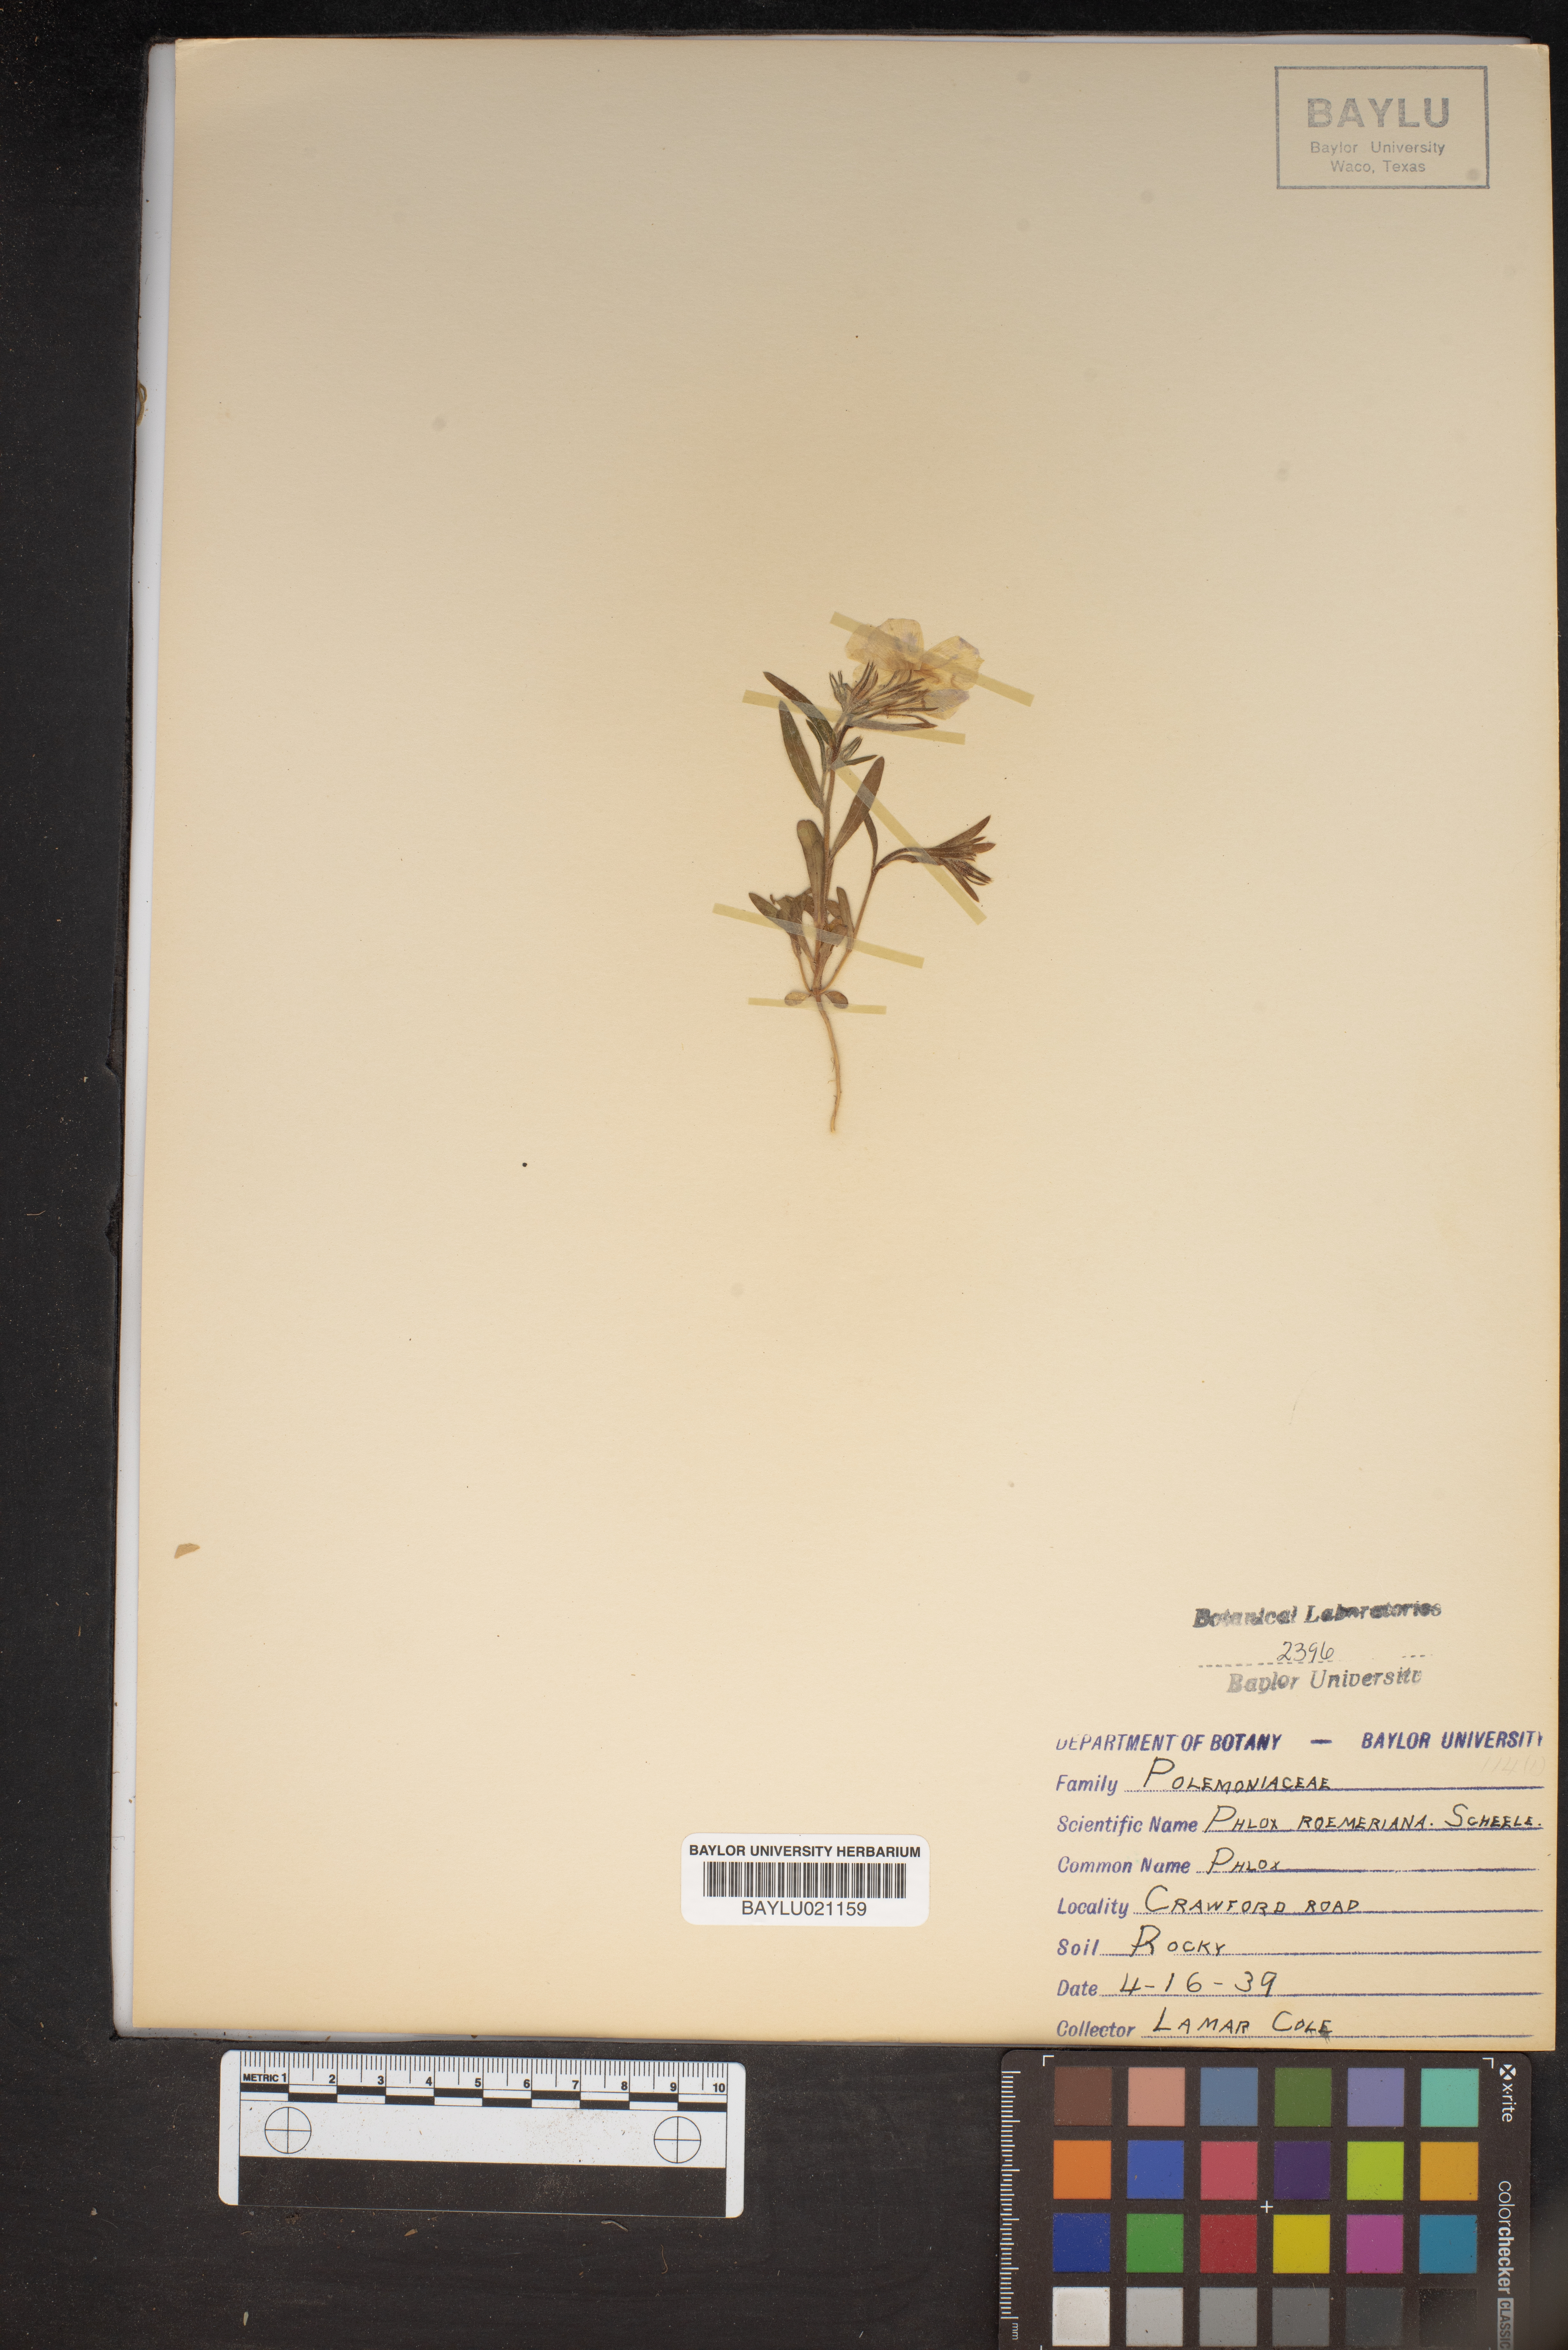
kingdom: Plantae
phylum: Tracheophyta
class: Magnoliopsida
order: Ericales
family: Polemoniaceae
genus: Phlox
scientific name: Phlox roemeriana
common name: Roemer's phlox
